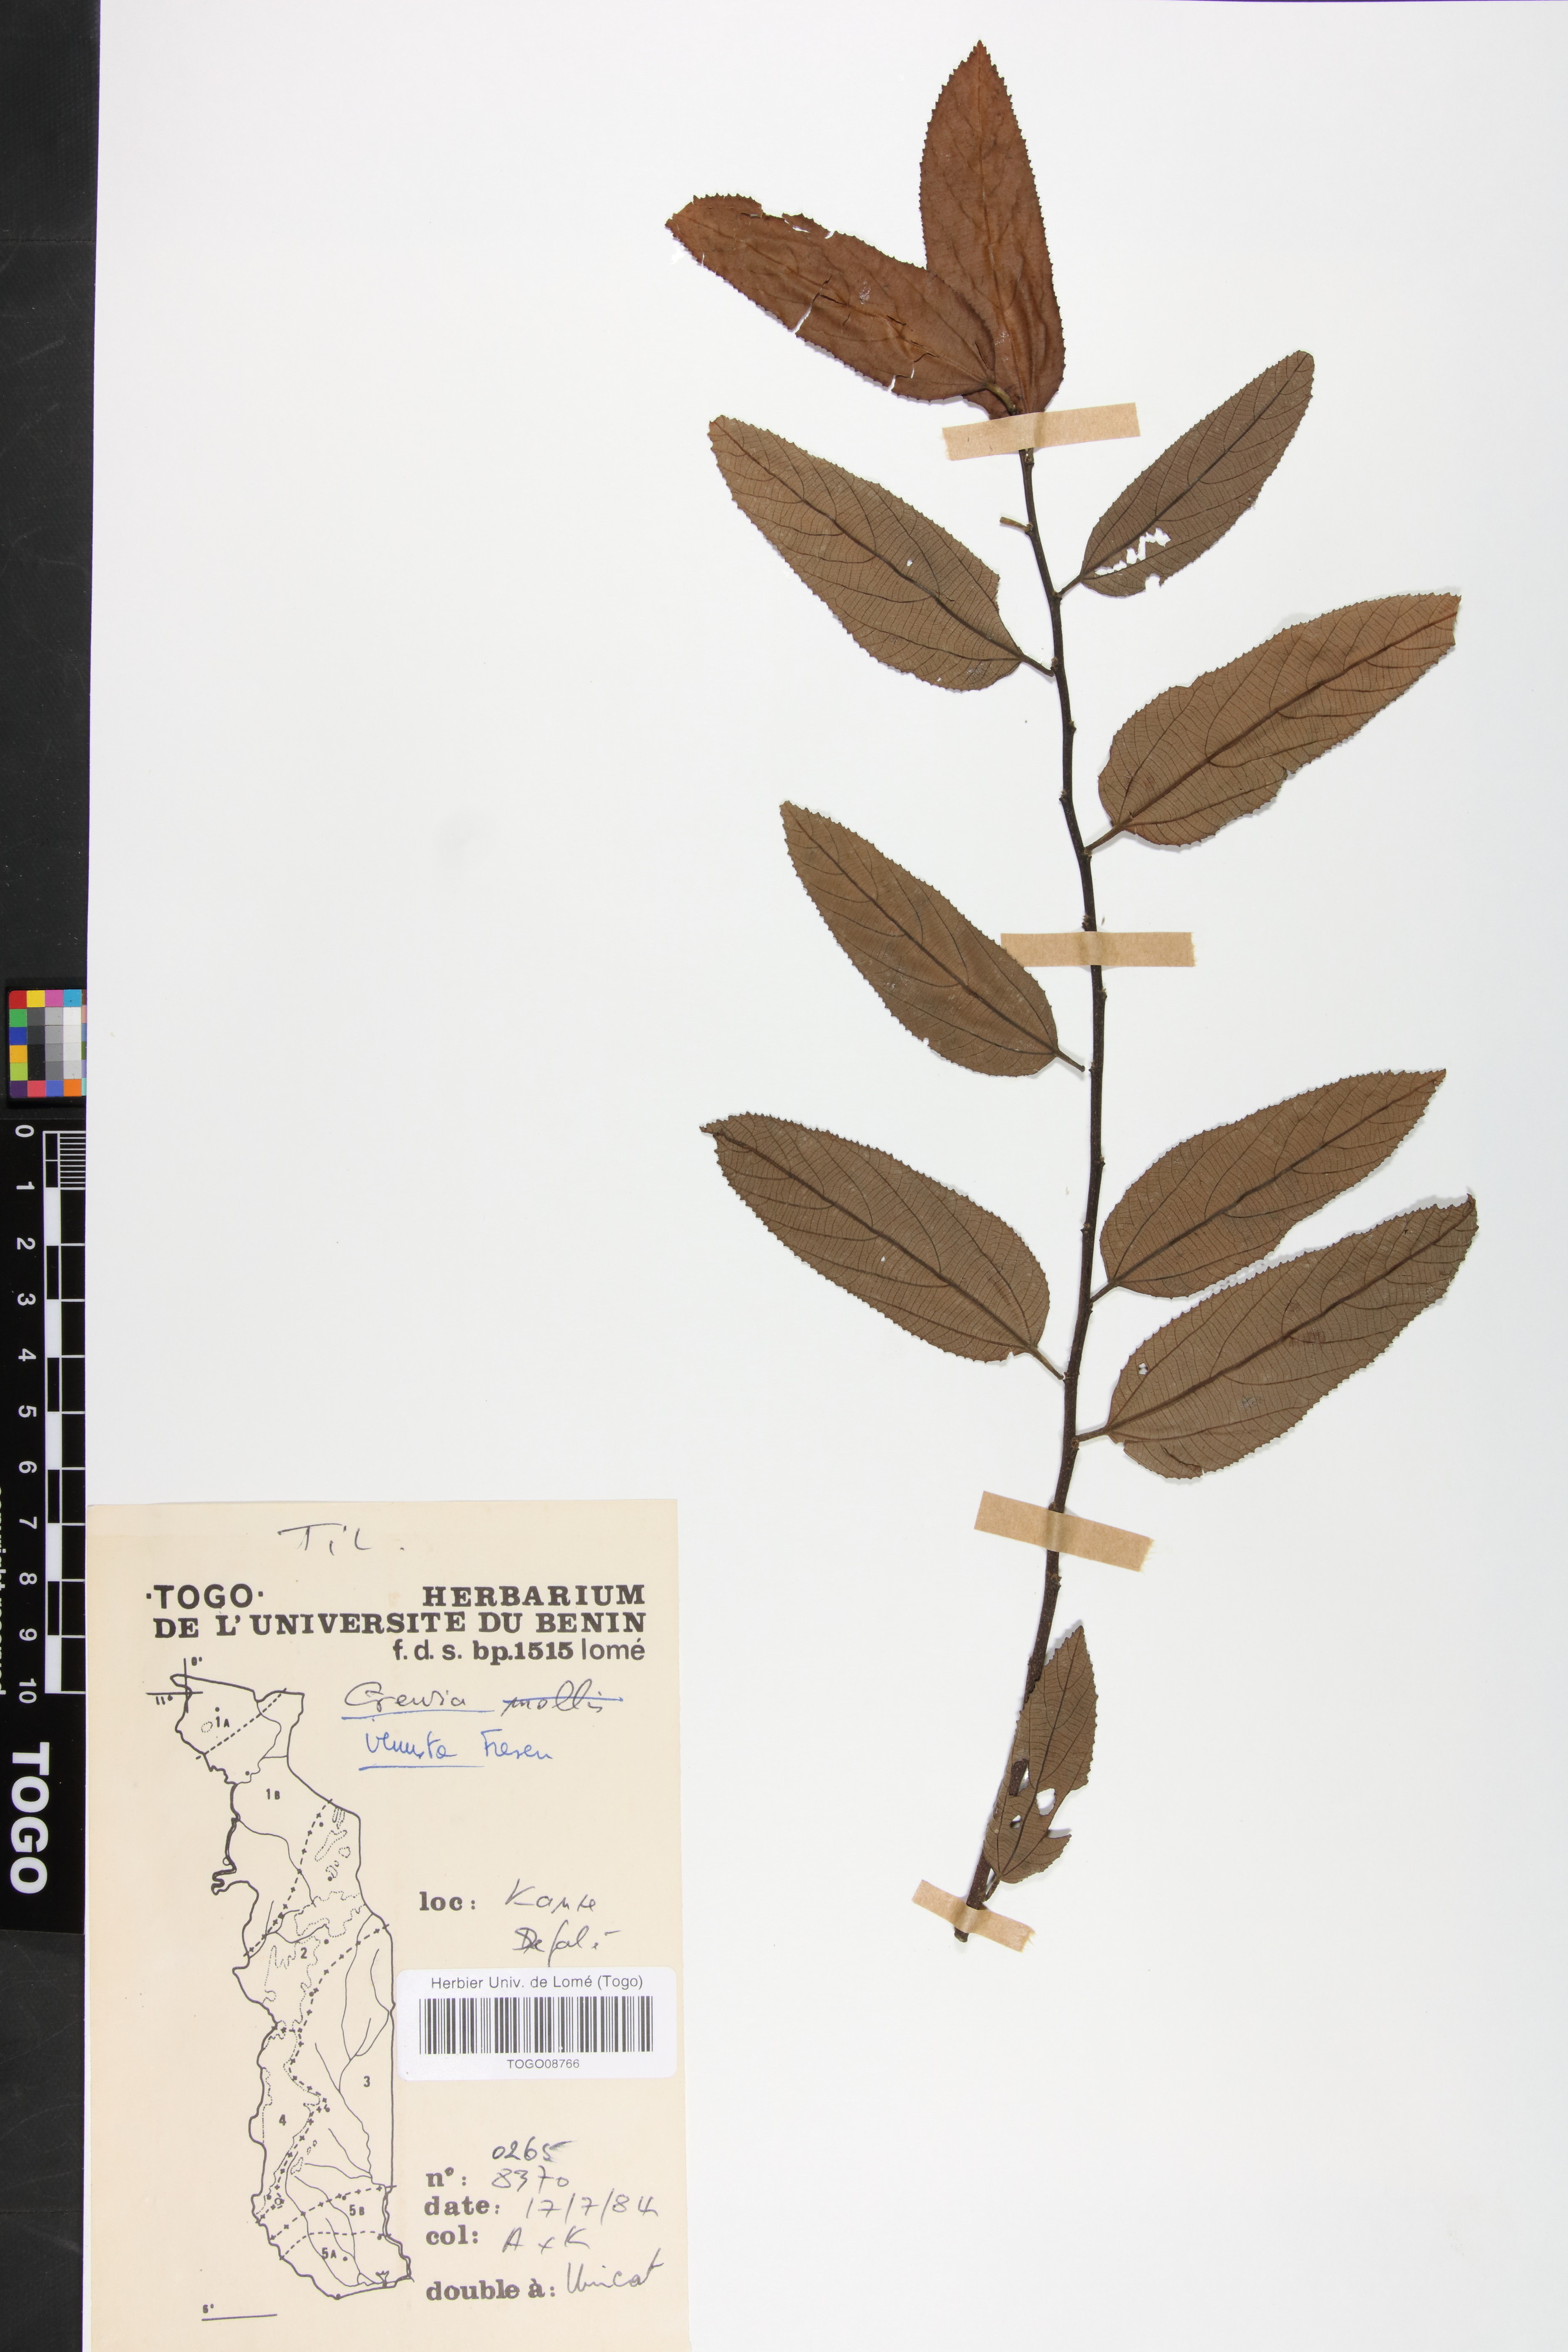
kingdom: Plantae
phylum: Tracheophyta
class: Magnoliopsida
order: Malvales
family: Malvaceae
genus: Grewia
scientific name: Grewia mollis
